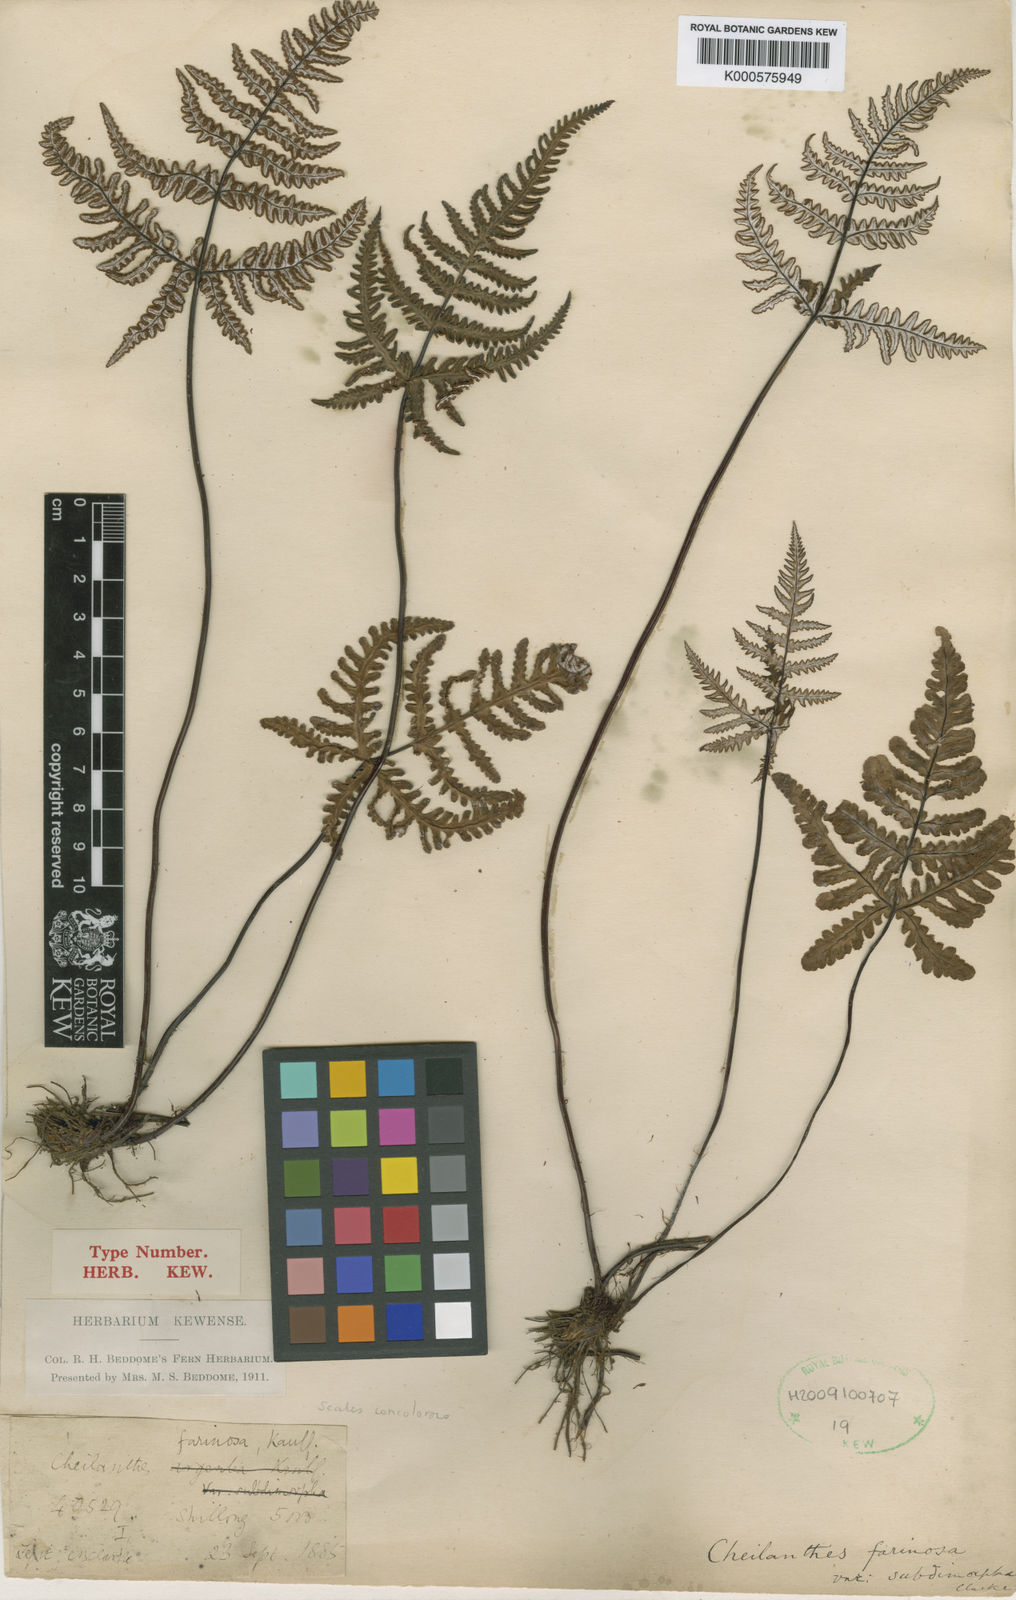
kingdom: Plantae
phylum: Tracheophyta
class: Polypodiopsida
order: Polypodiales
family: Pteridaceae
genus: Aleuritopteris
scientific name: Aleuritopteris subdimorpha
